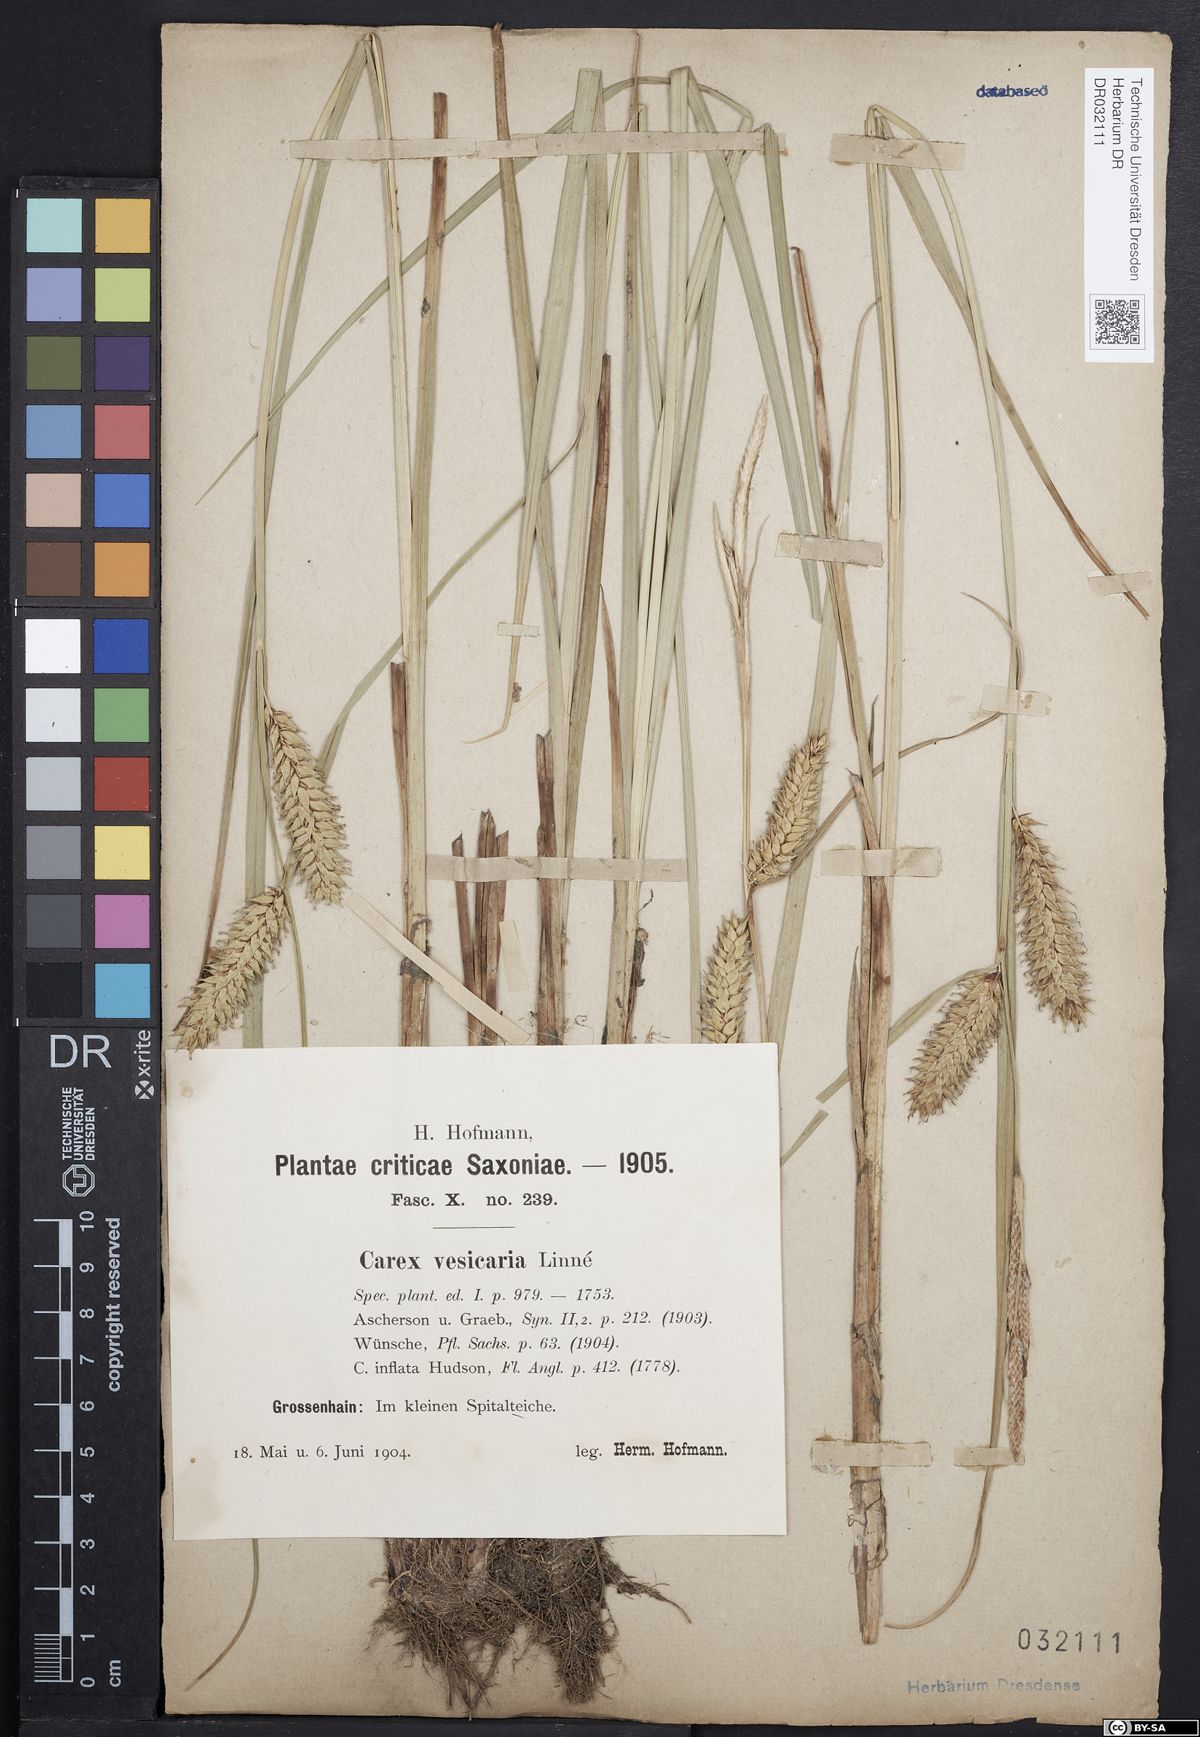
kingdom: Plantae
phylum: Tracheophyta
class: Liliopsida
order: Poales
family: Cyperaceae
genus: Carex
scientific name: Carex vesicaria
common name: Bladder-sedge
